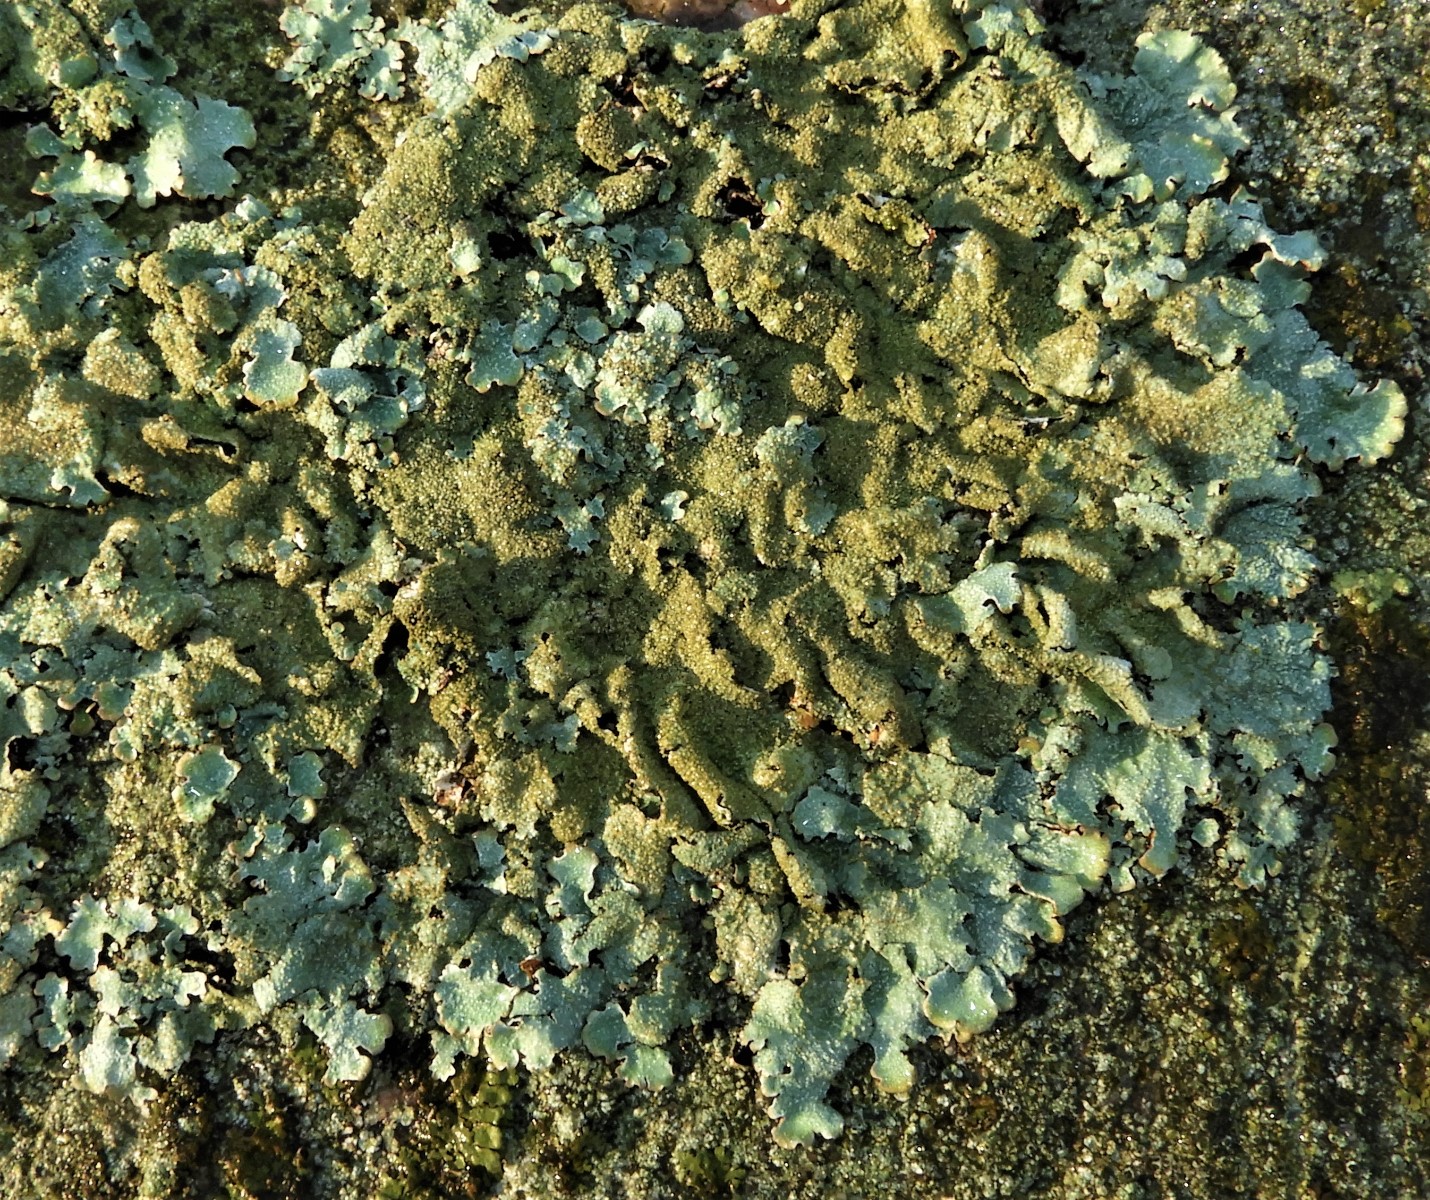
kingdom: Fungi
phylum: Ascomycota
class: Lecanoromycetes
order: Lecanorales
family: Parmeliaceae
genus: Parmelia
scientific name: Parmelia saxatilis
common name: farve-skållav
